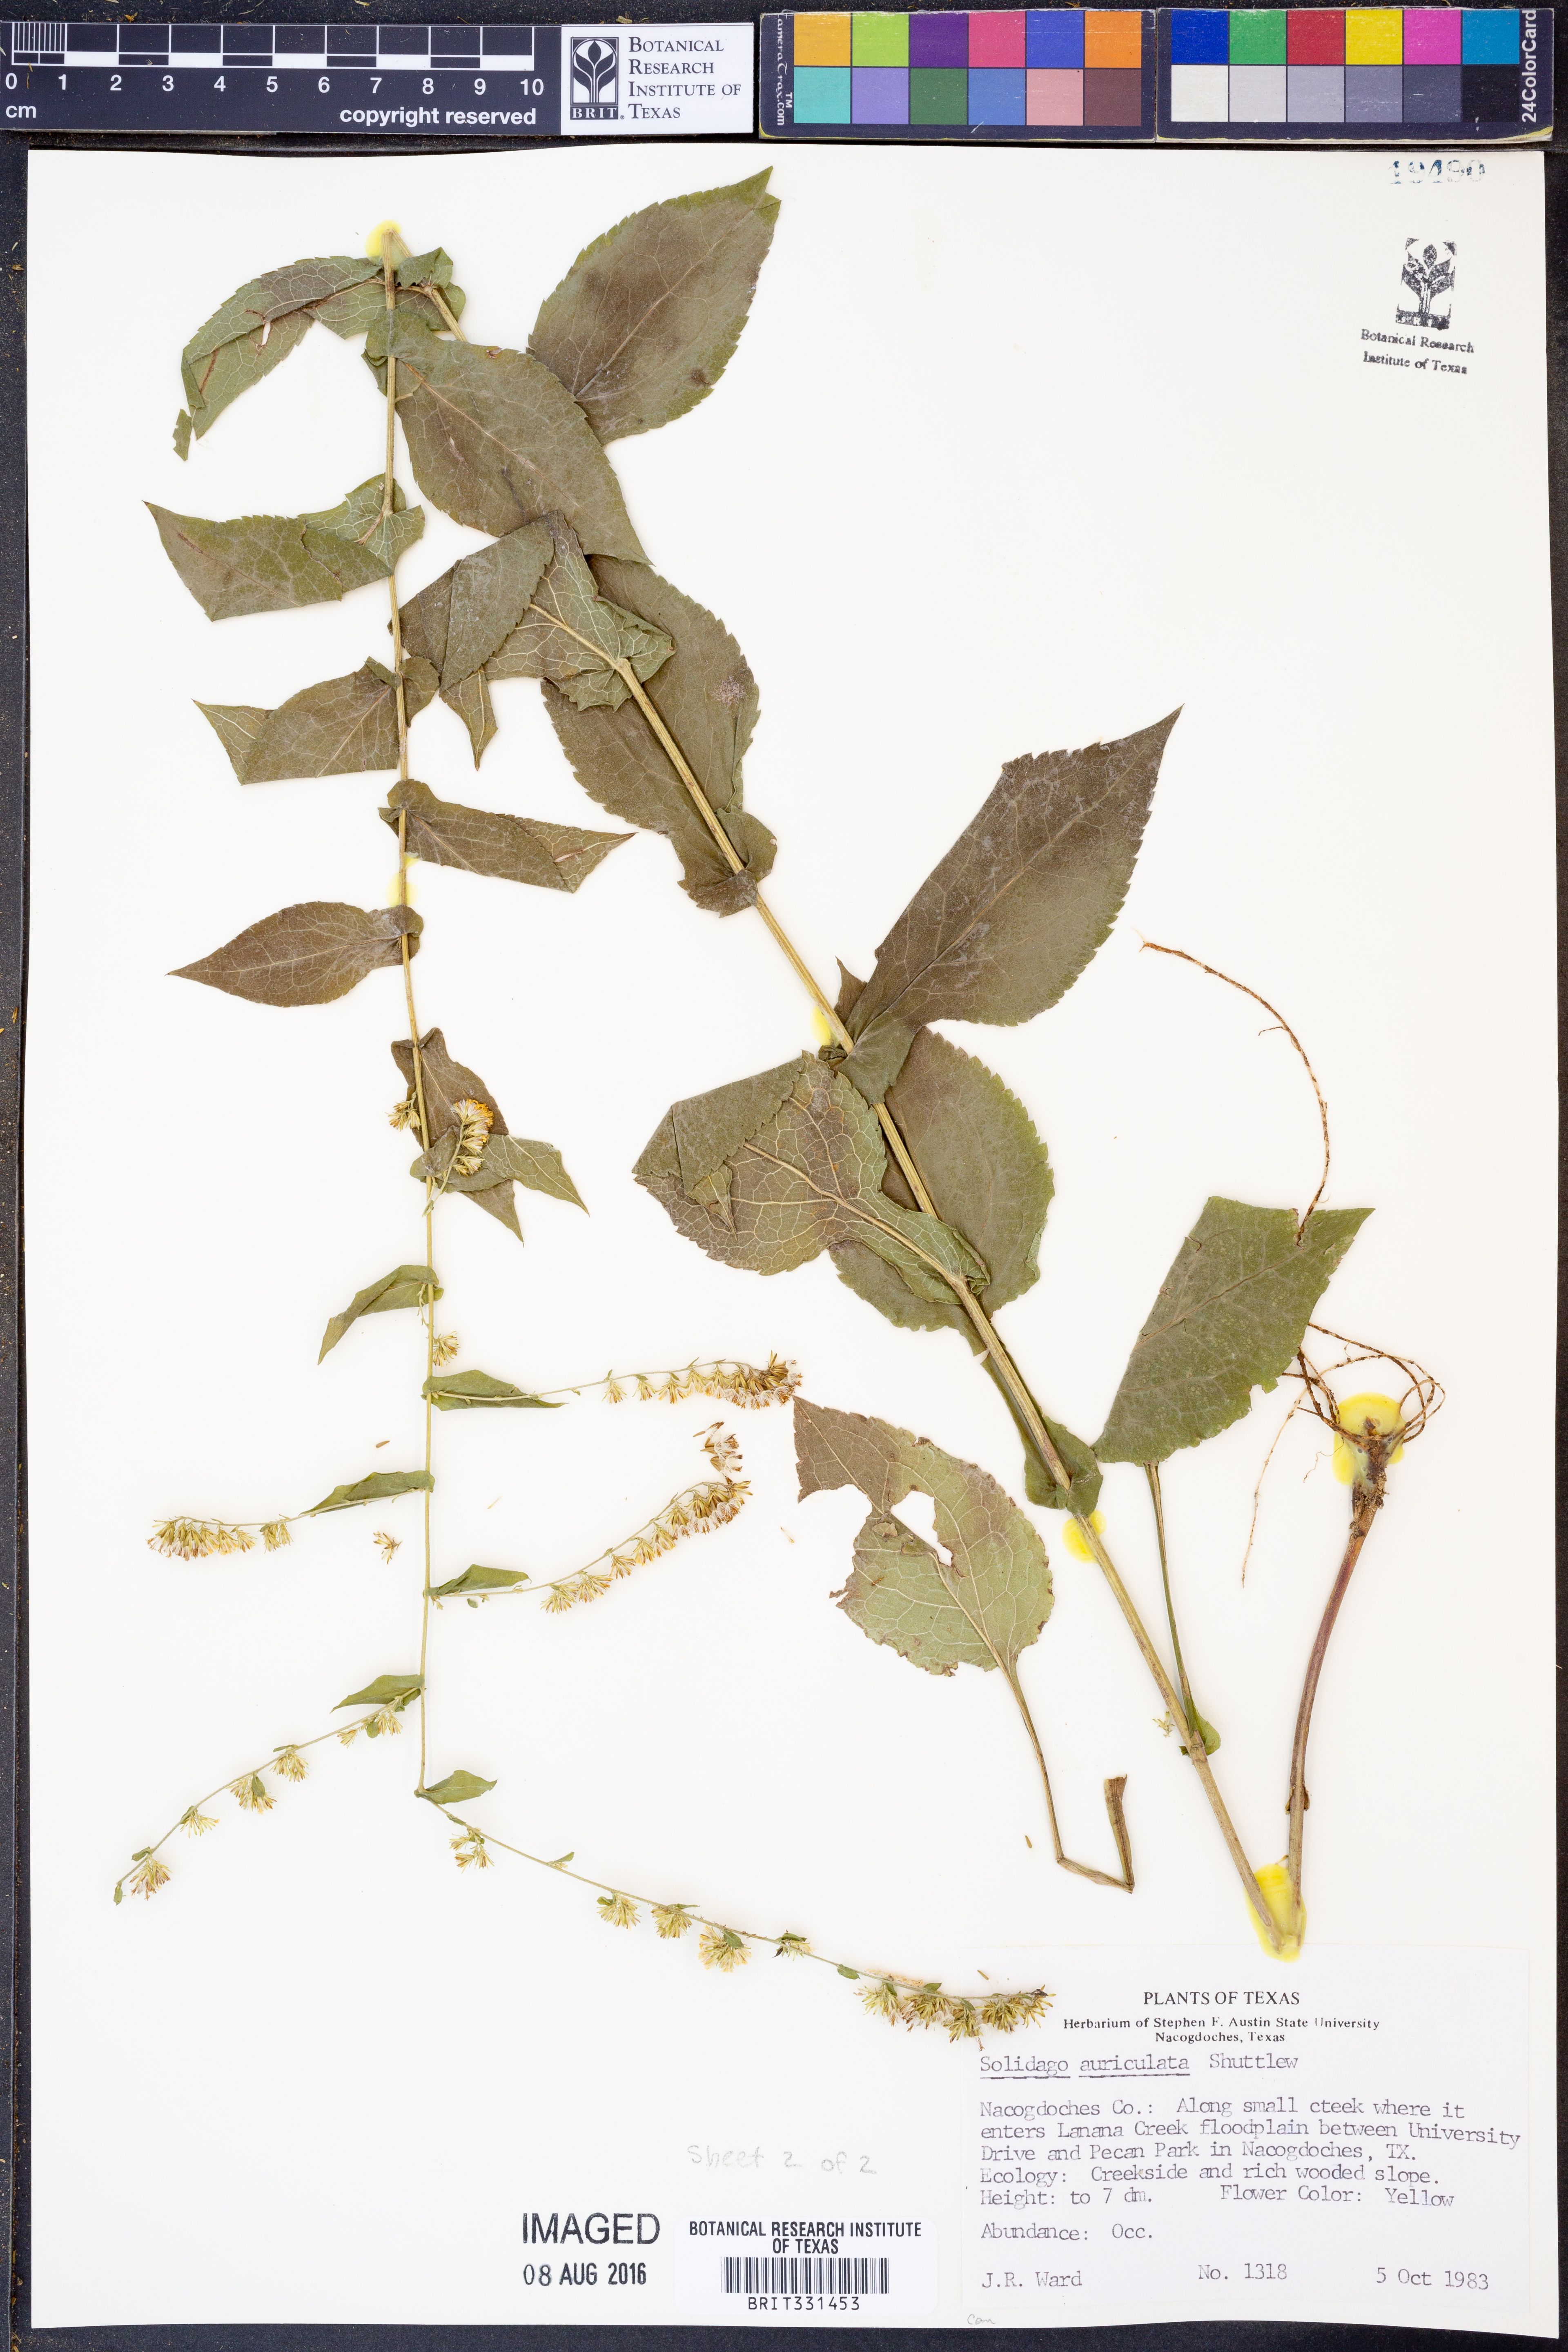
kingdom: Plantae
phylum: Tracheophyta
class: Magnoliopsida
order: Asterales
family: Asteraceae
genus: Solidago
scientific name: Solidago auriculata
